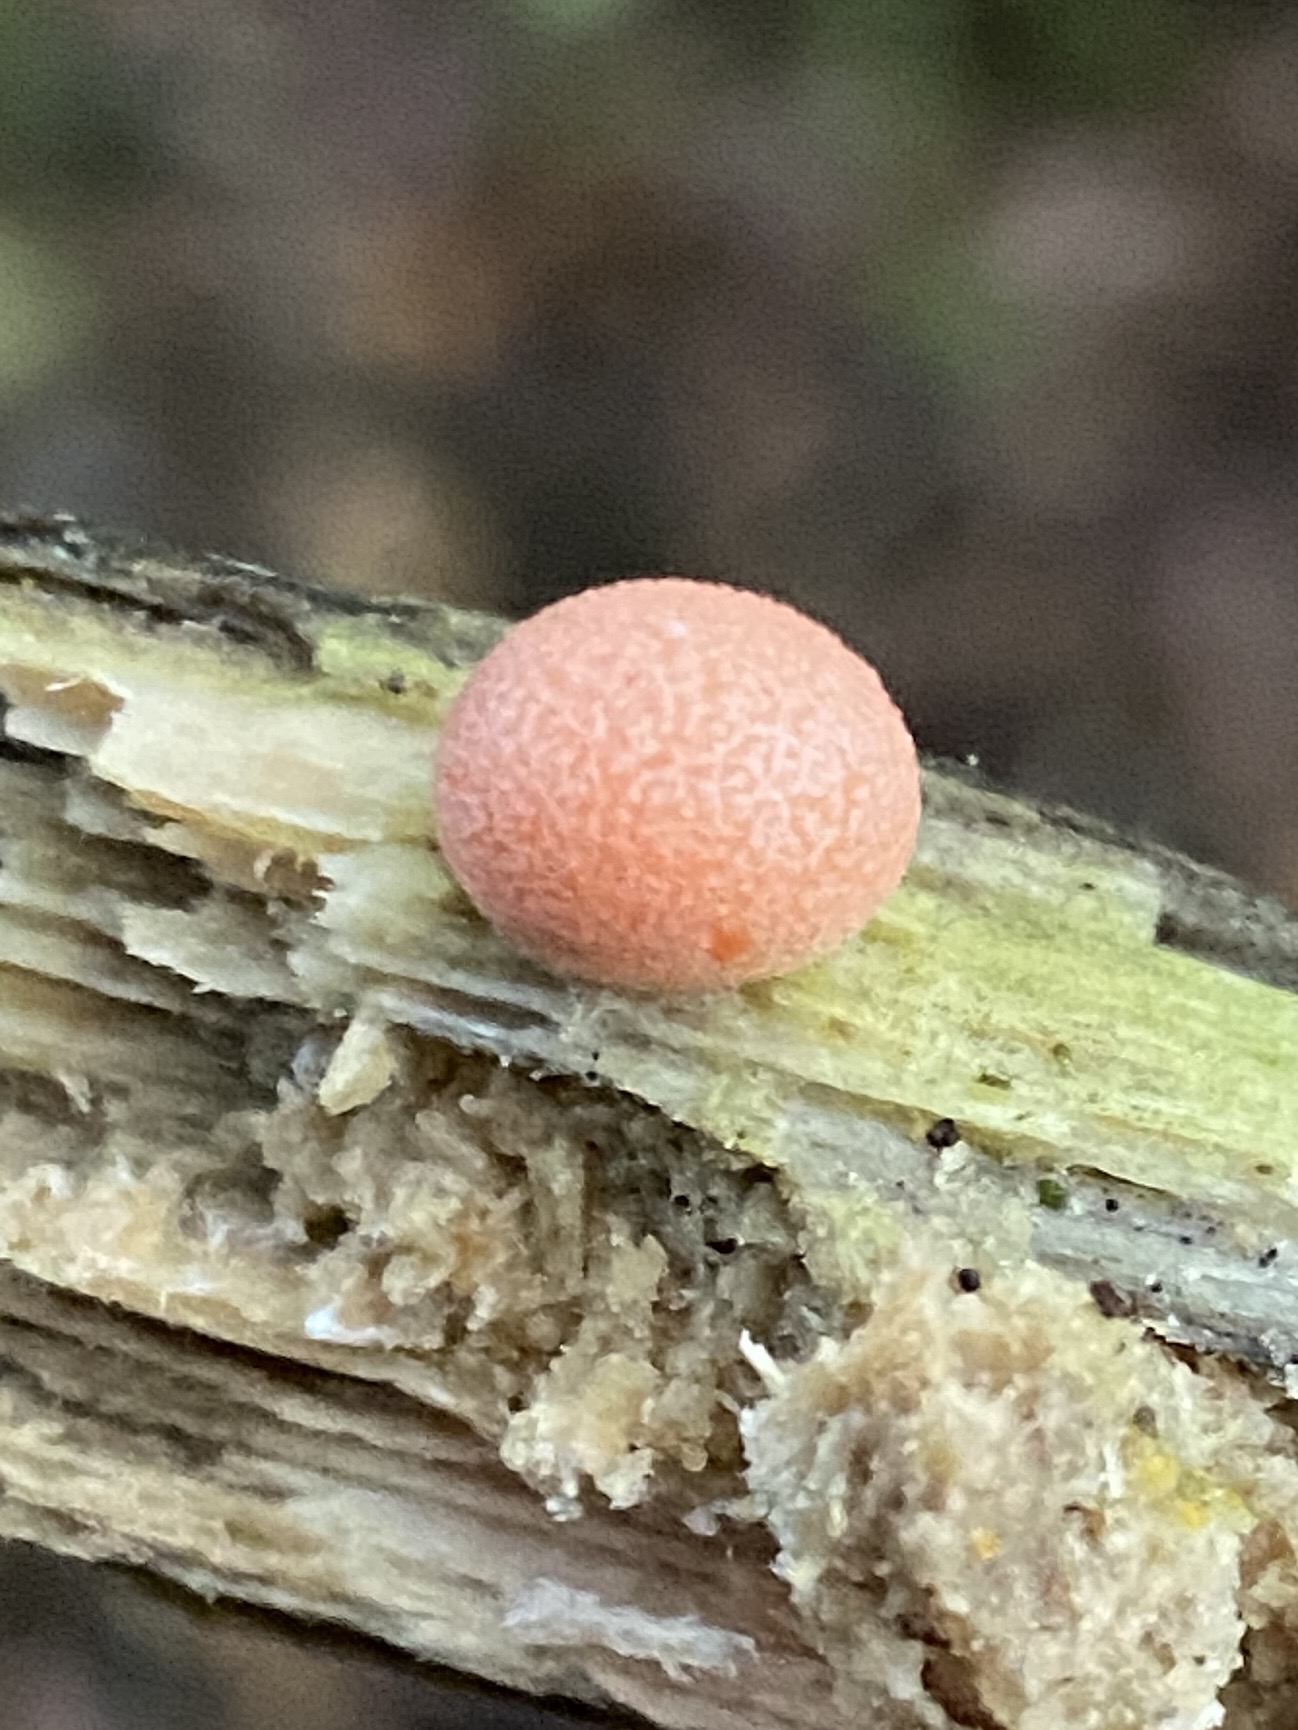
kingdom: Protozoa
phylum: Mycetozoa
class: Myxomycetes
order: Cribrariales
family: Tubiferaceae
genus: Lycogala
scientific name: Lycogala epidendrum
